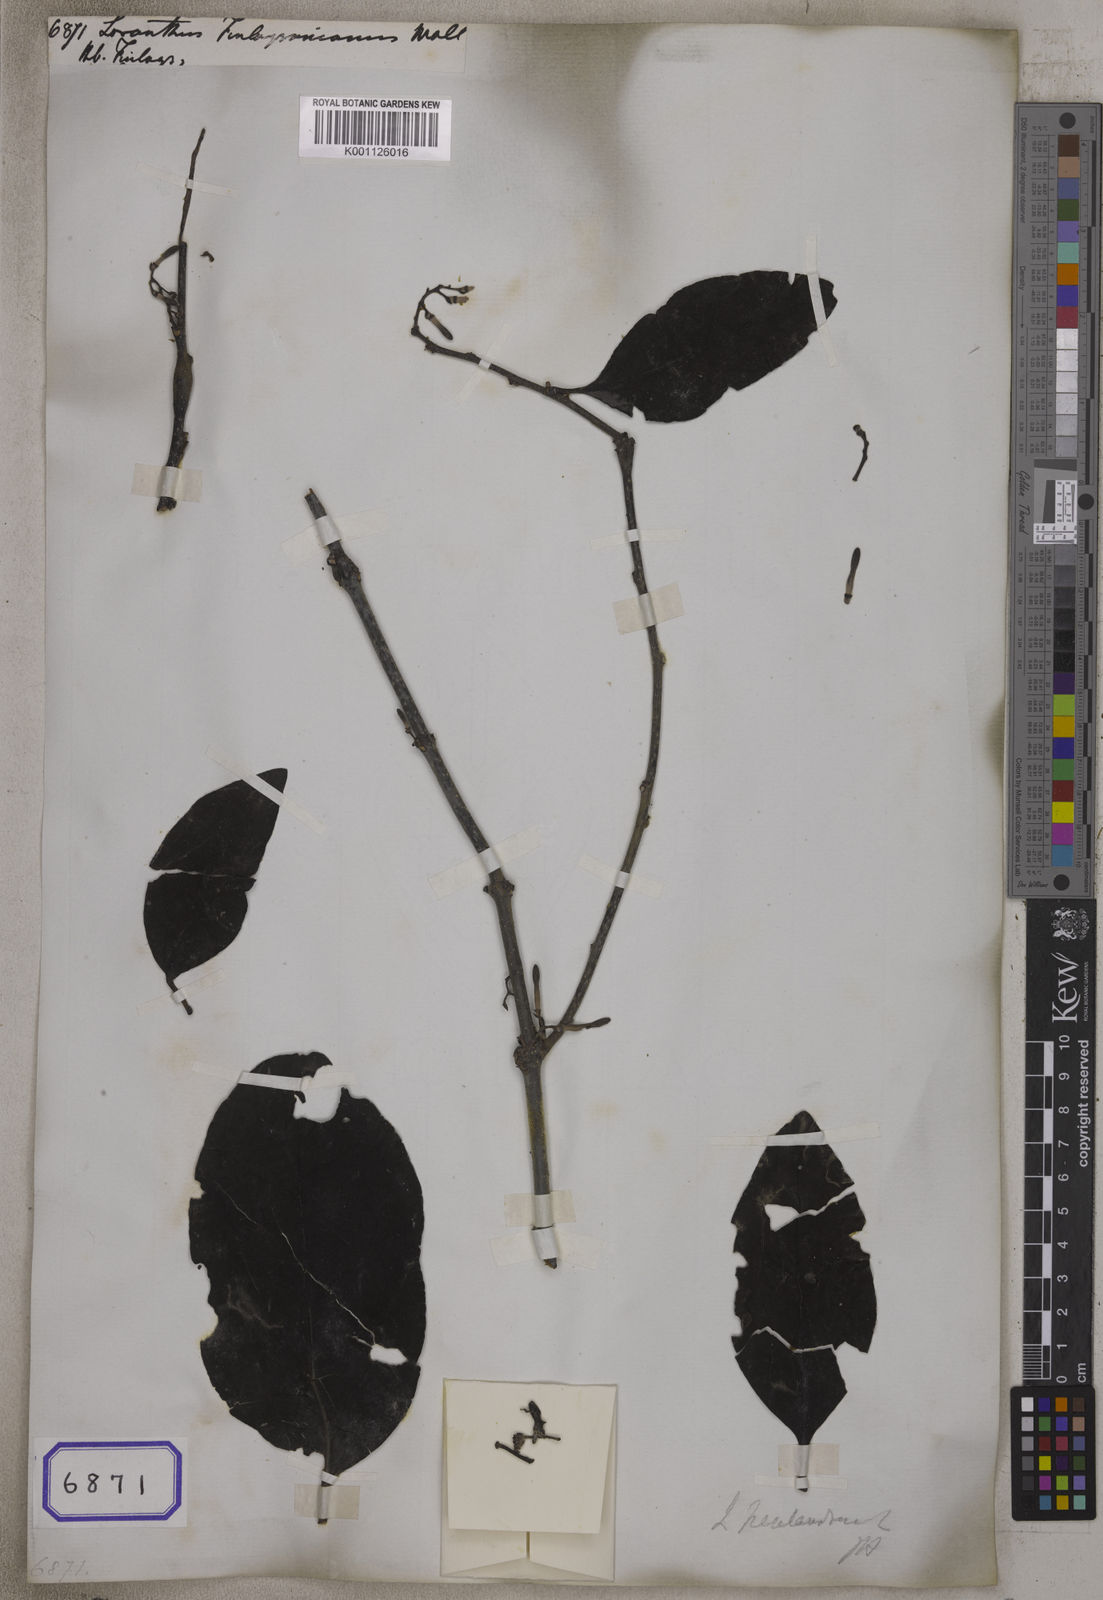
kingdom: Plantae
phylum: Tracheophyta
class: Magnoliopsida
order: Santalales
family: Loranthaceae
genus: Dendrophthoe
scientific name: Dendrophthoe pentandra
